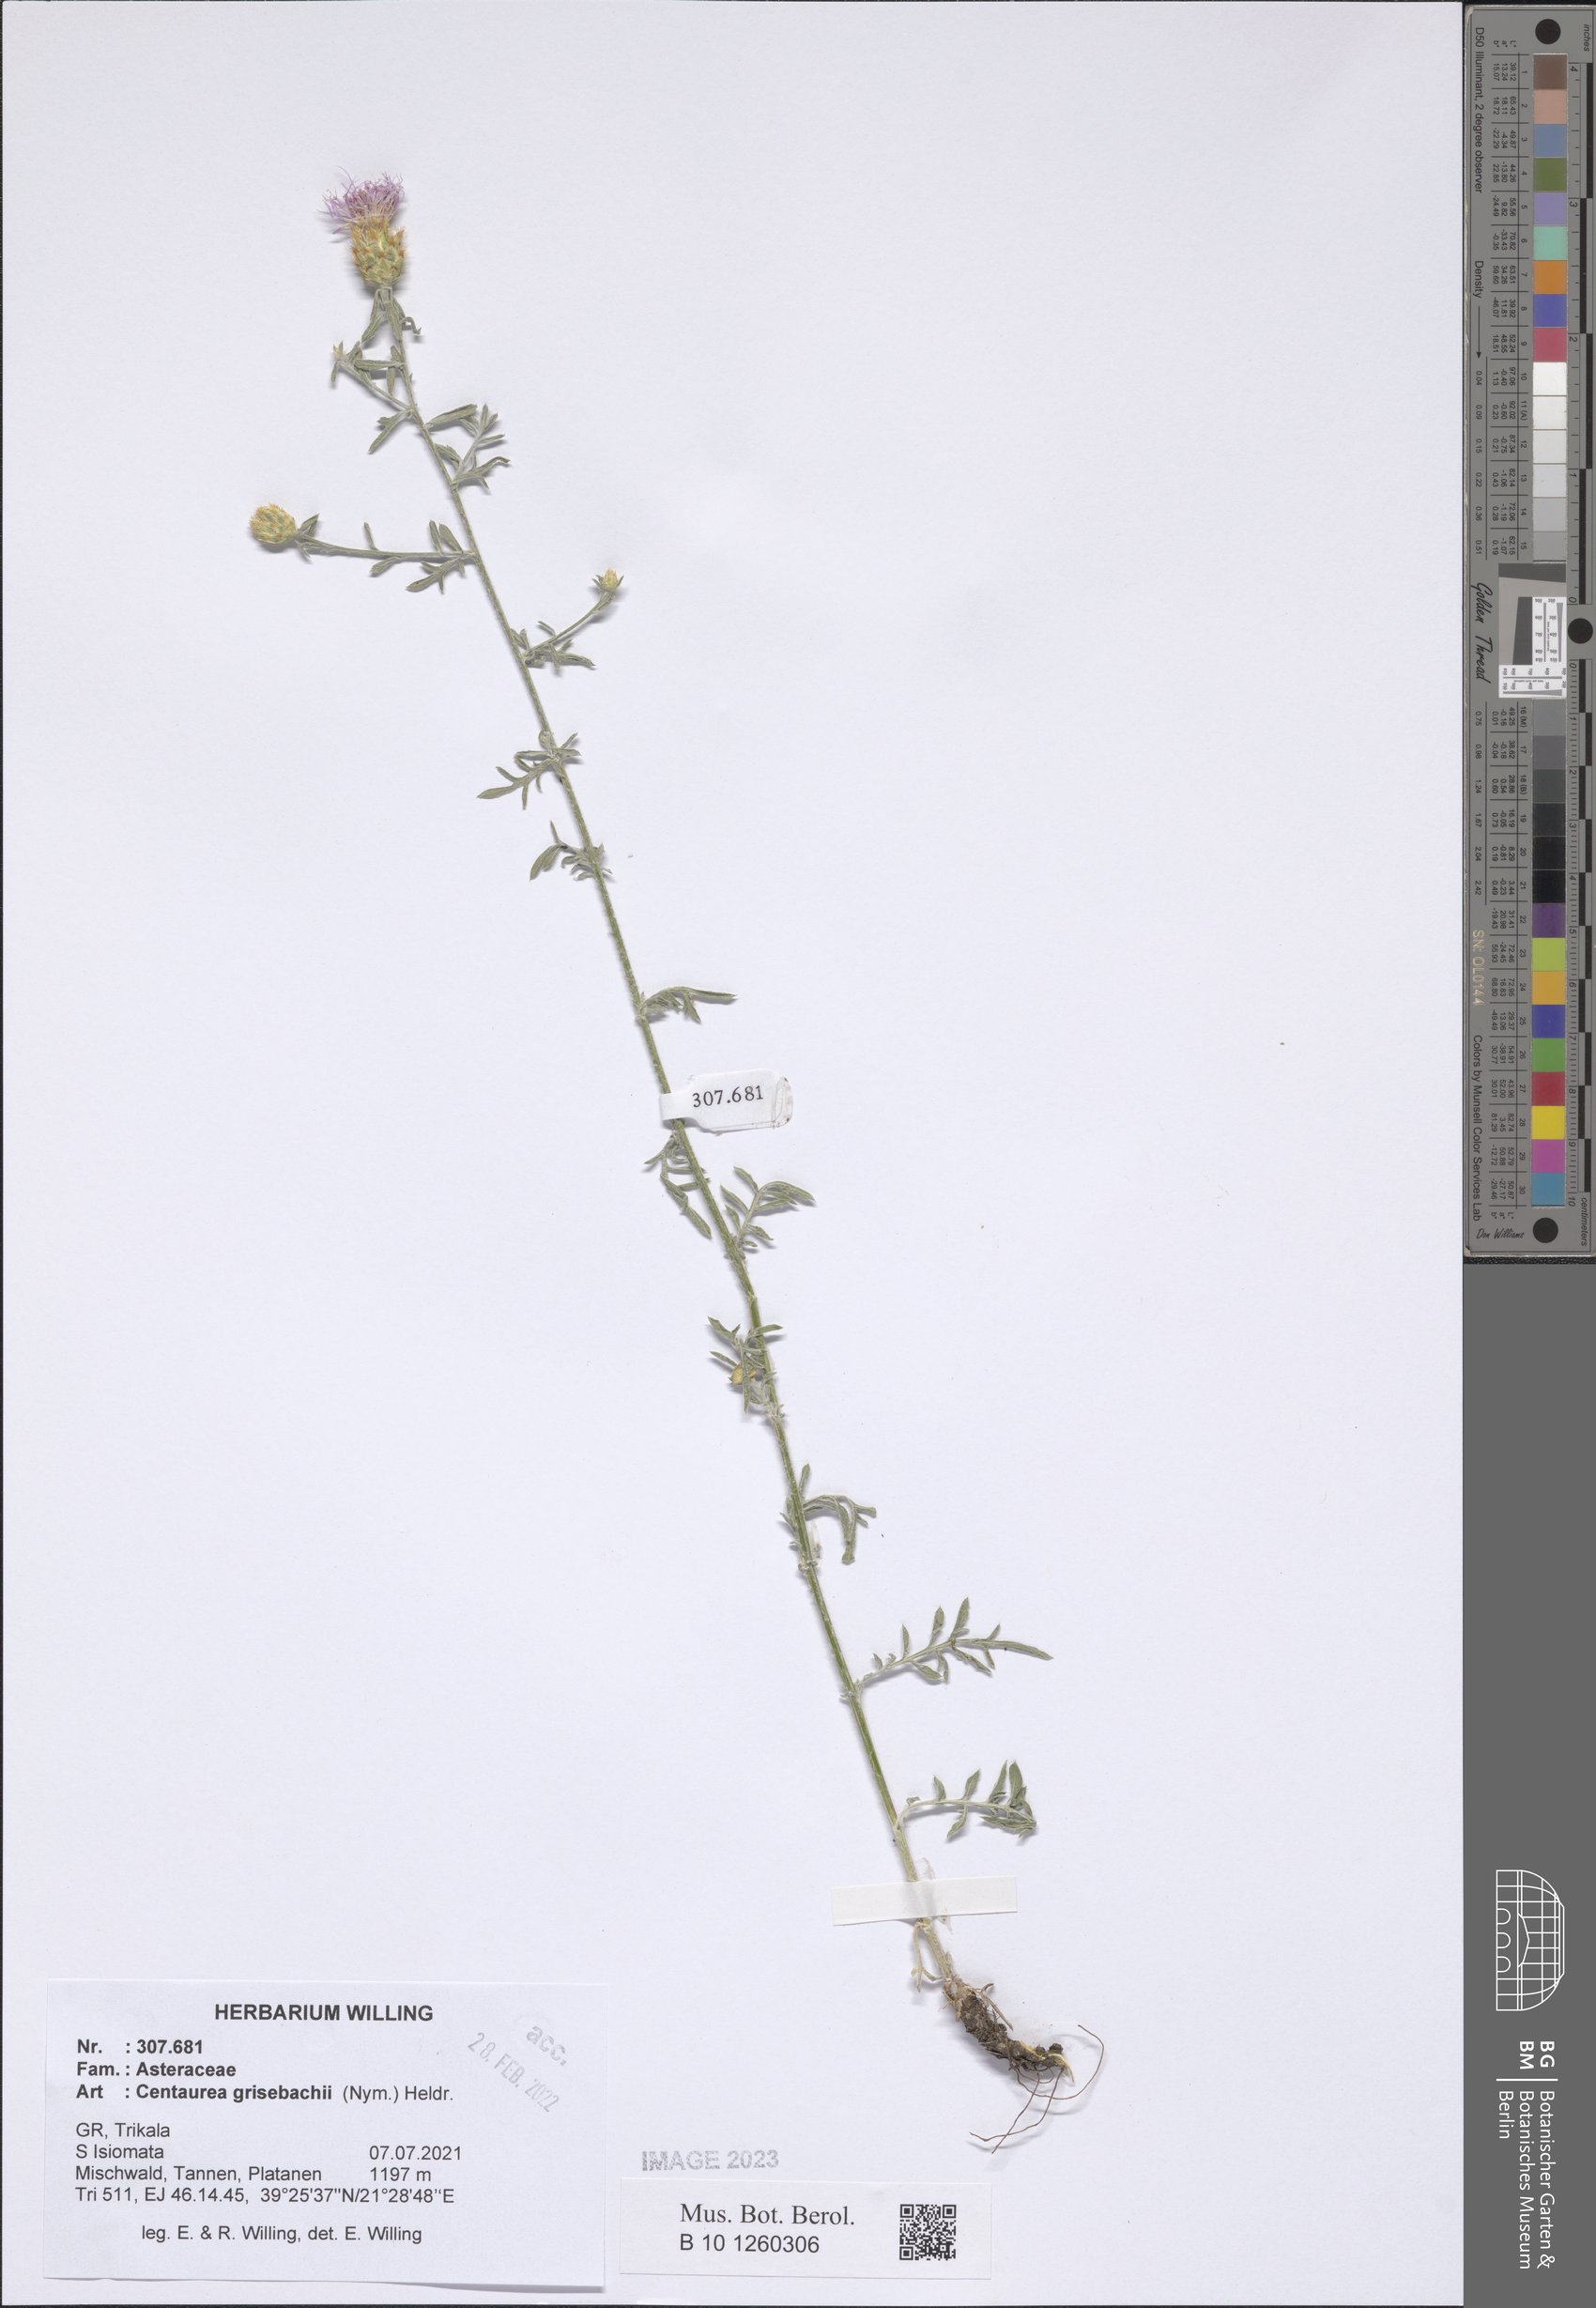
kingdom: Plantae
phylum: Tracheophyta
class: Magnoliopsida
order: Asterales
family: Asteraceae
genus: Centaurea
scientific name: Centaurea grisebachii
